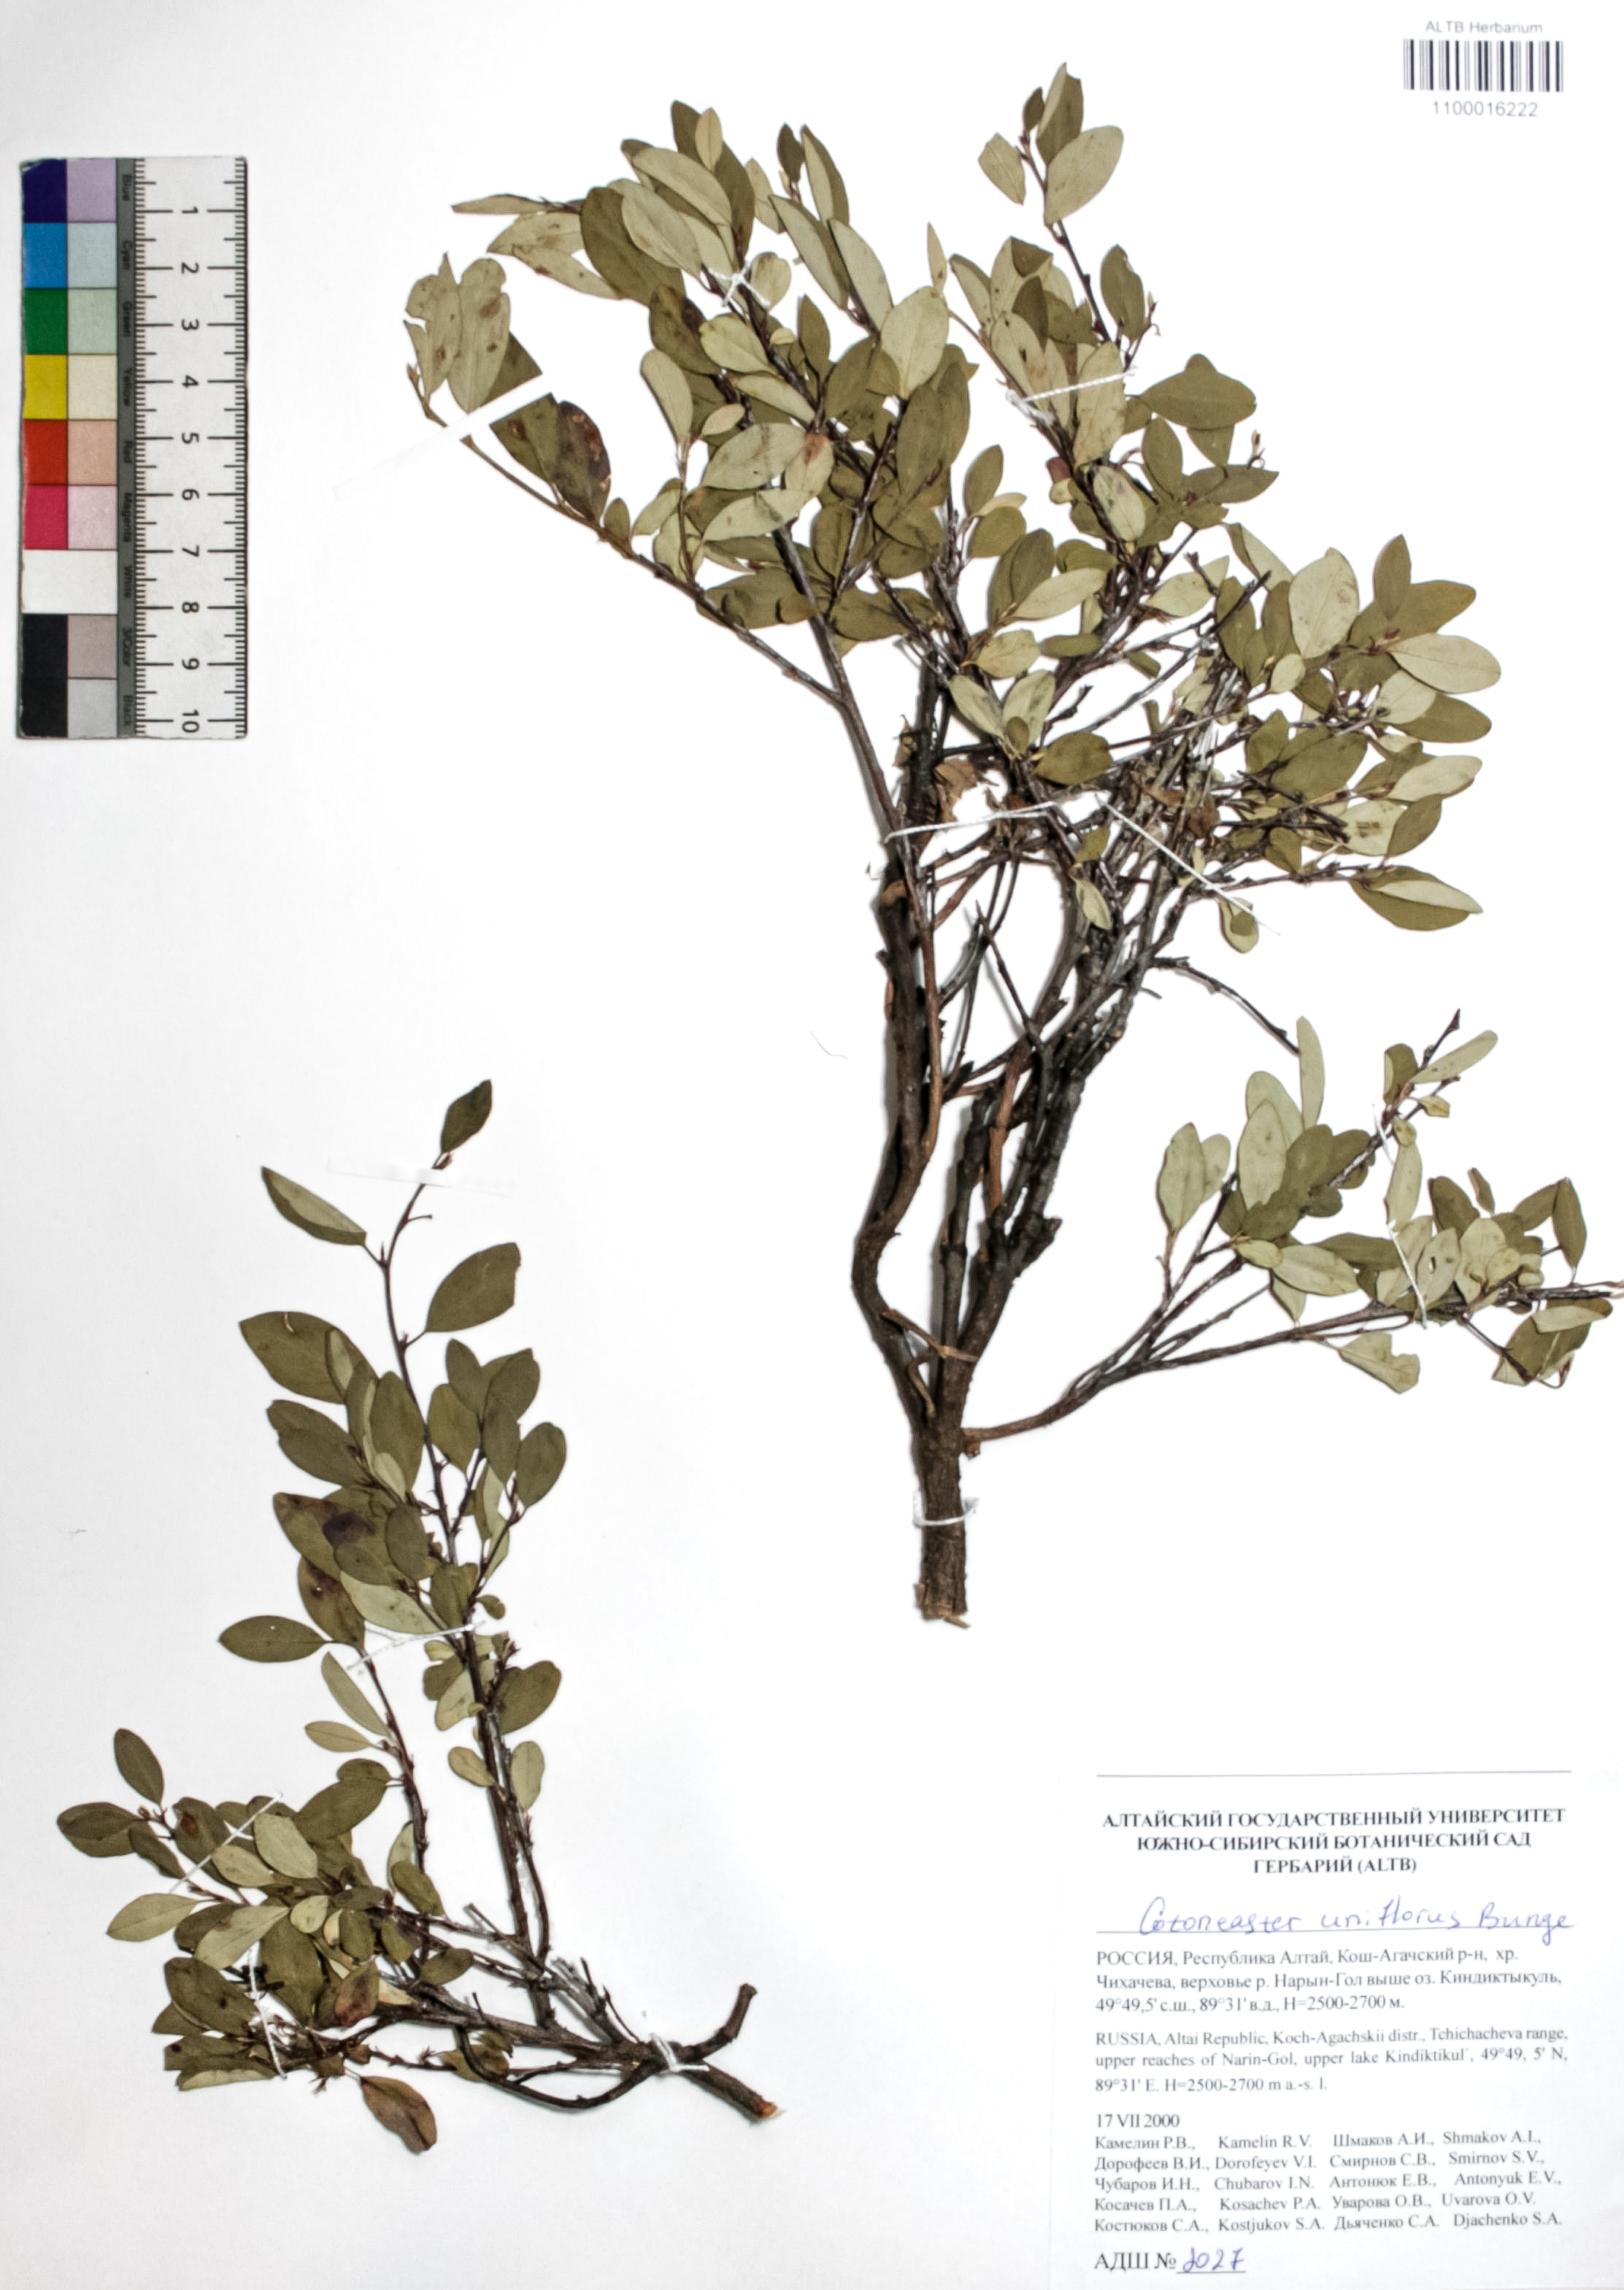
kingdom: Plantae
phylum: Tracheophyta
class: Magnoliopsida
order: Rosales
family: Rosaceae
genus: Cotoneaster
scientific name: Cotoneaster uniflorus
